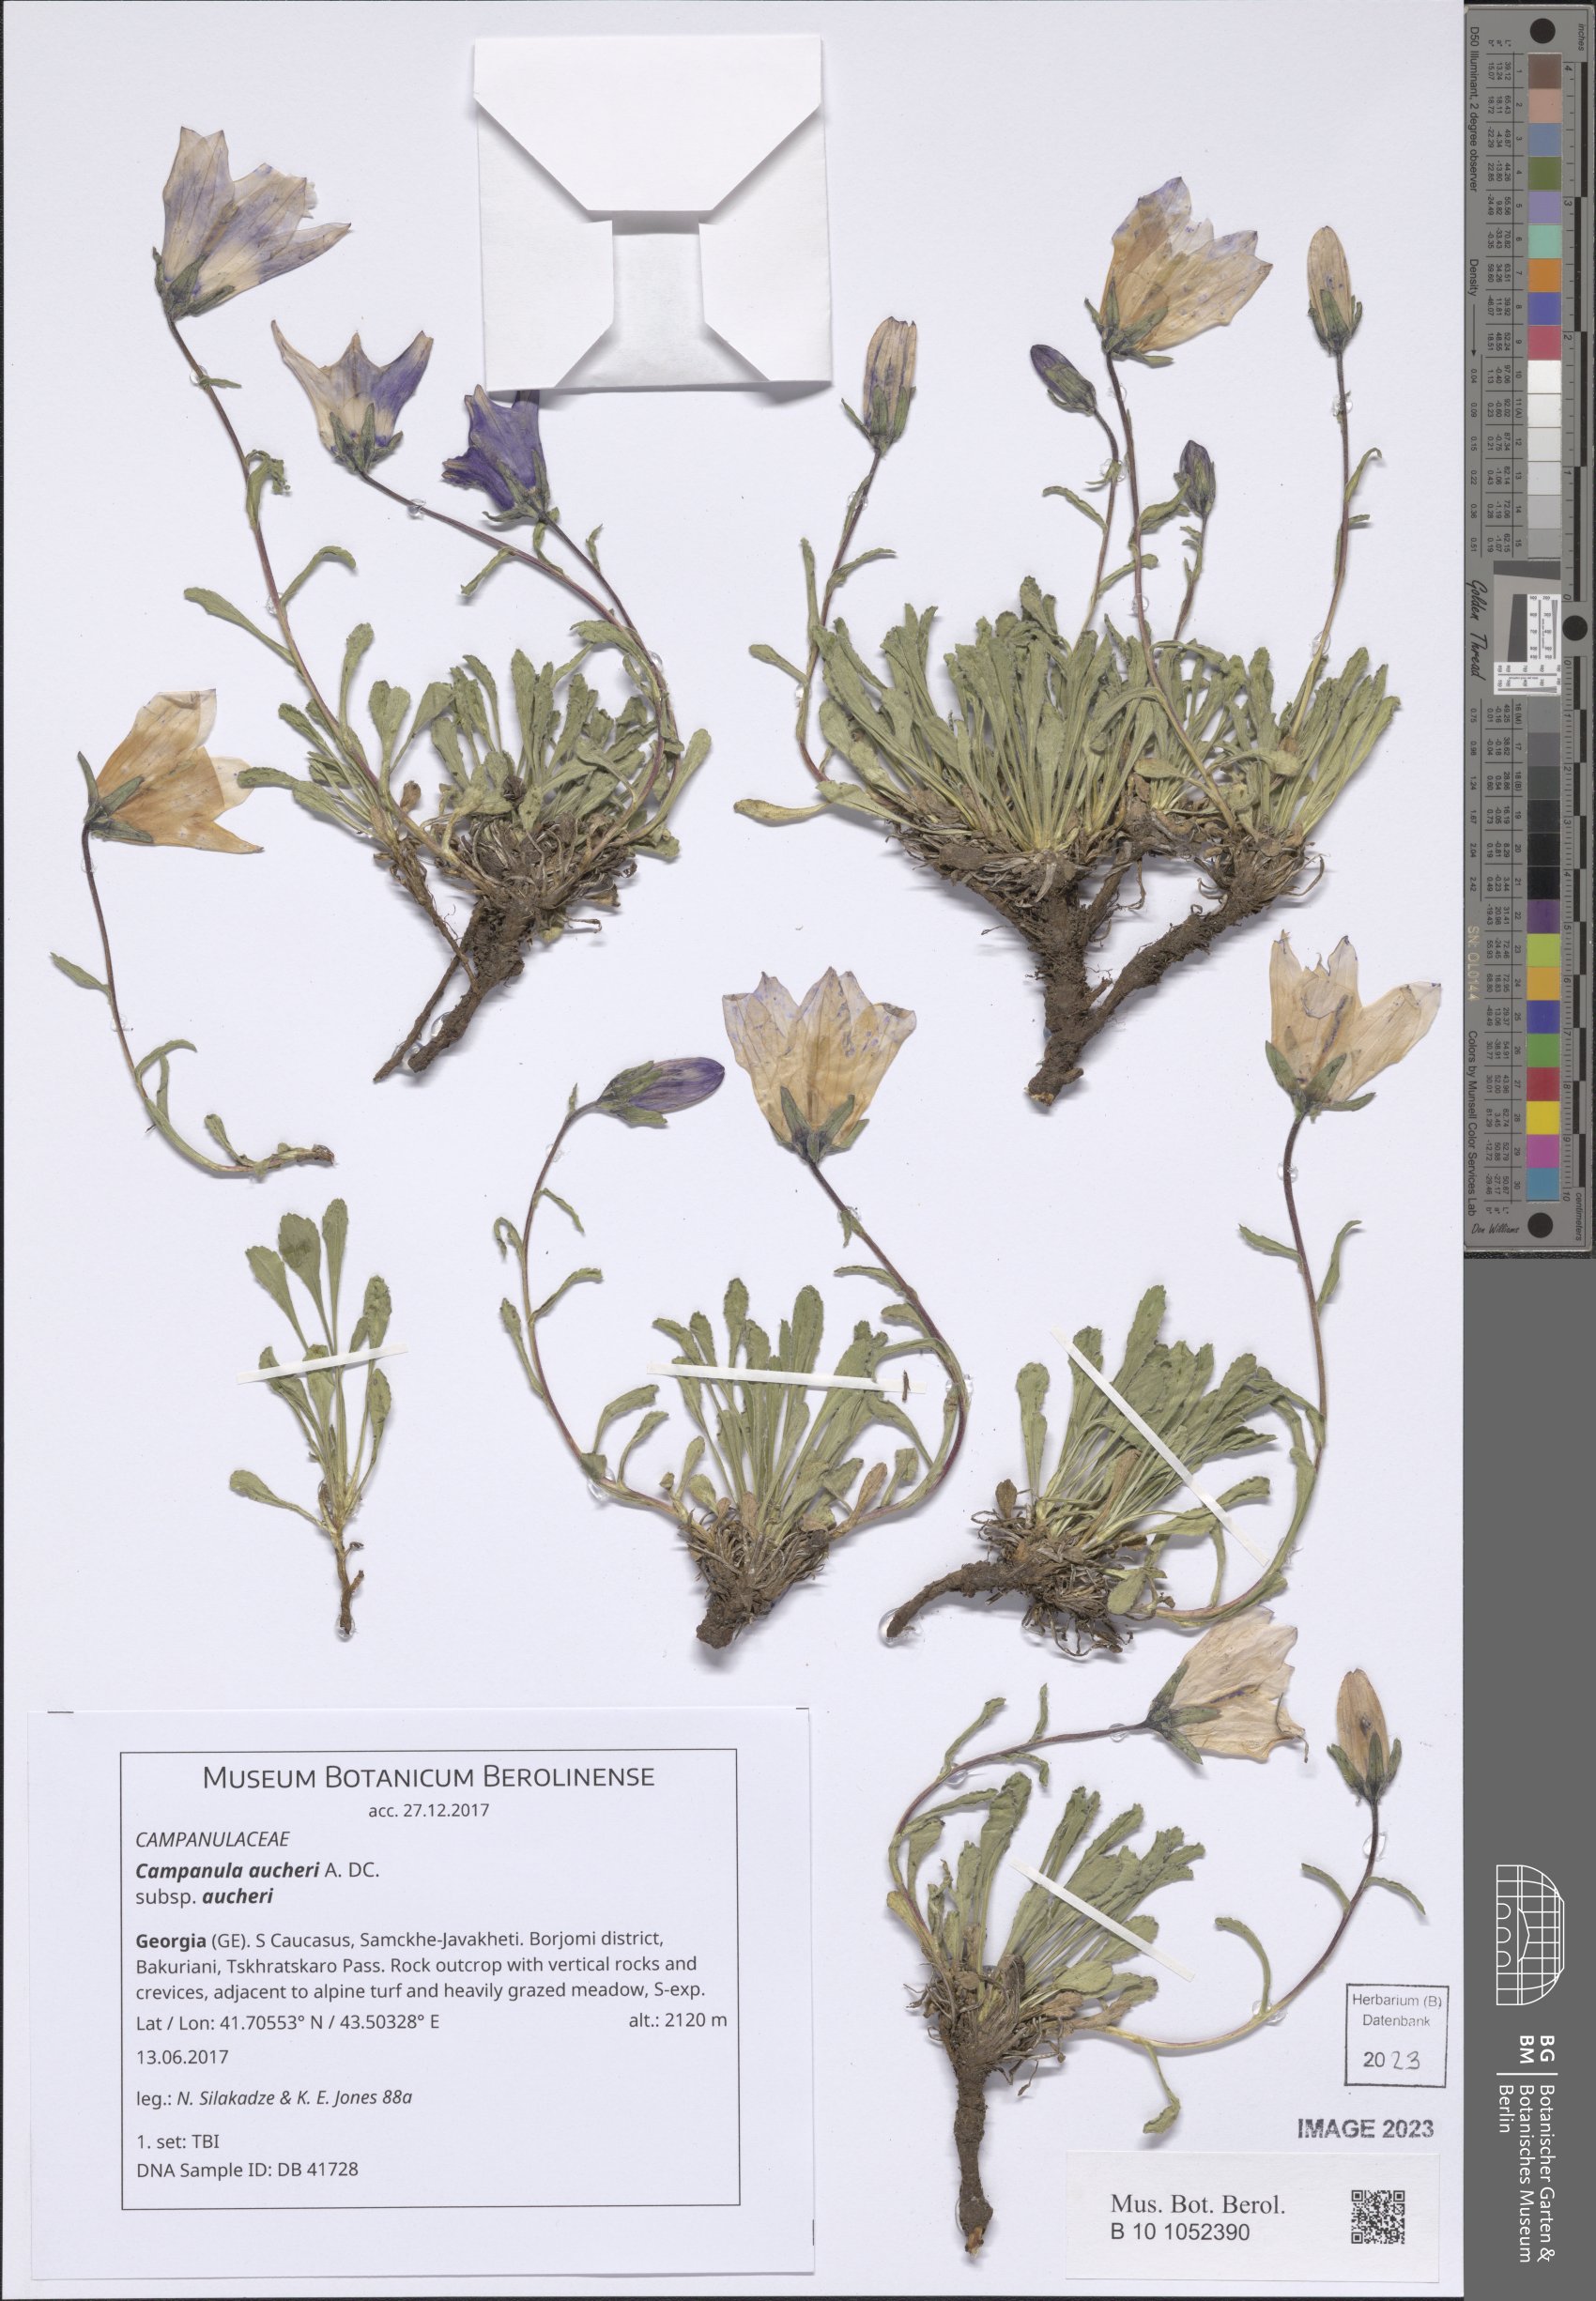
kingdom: Plantae
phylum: Tracheophyta
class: Magnoliopsida
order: Asterales
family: Campanulaceae
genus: Campanula
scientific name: Campanula saxifraga
